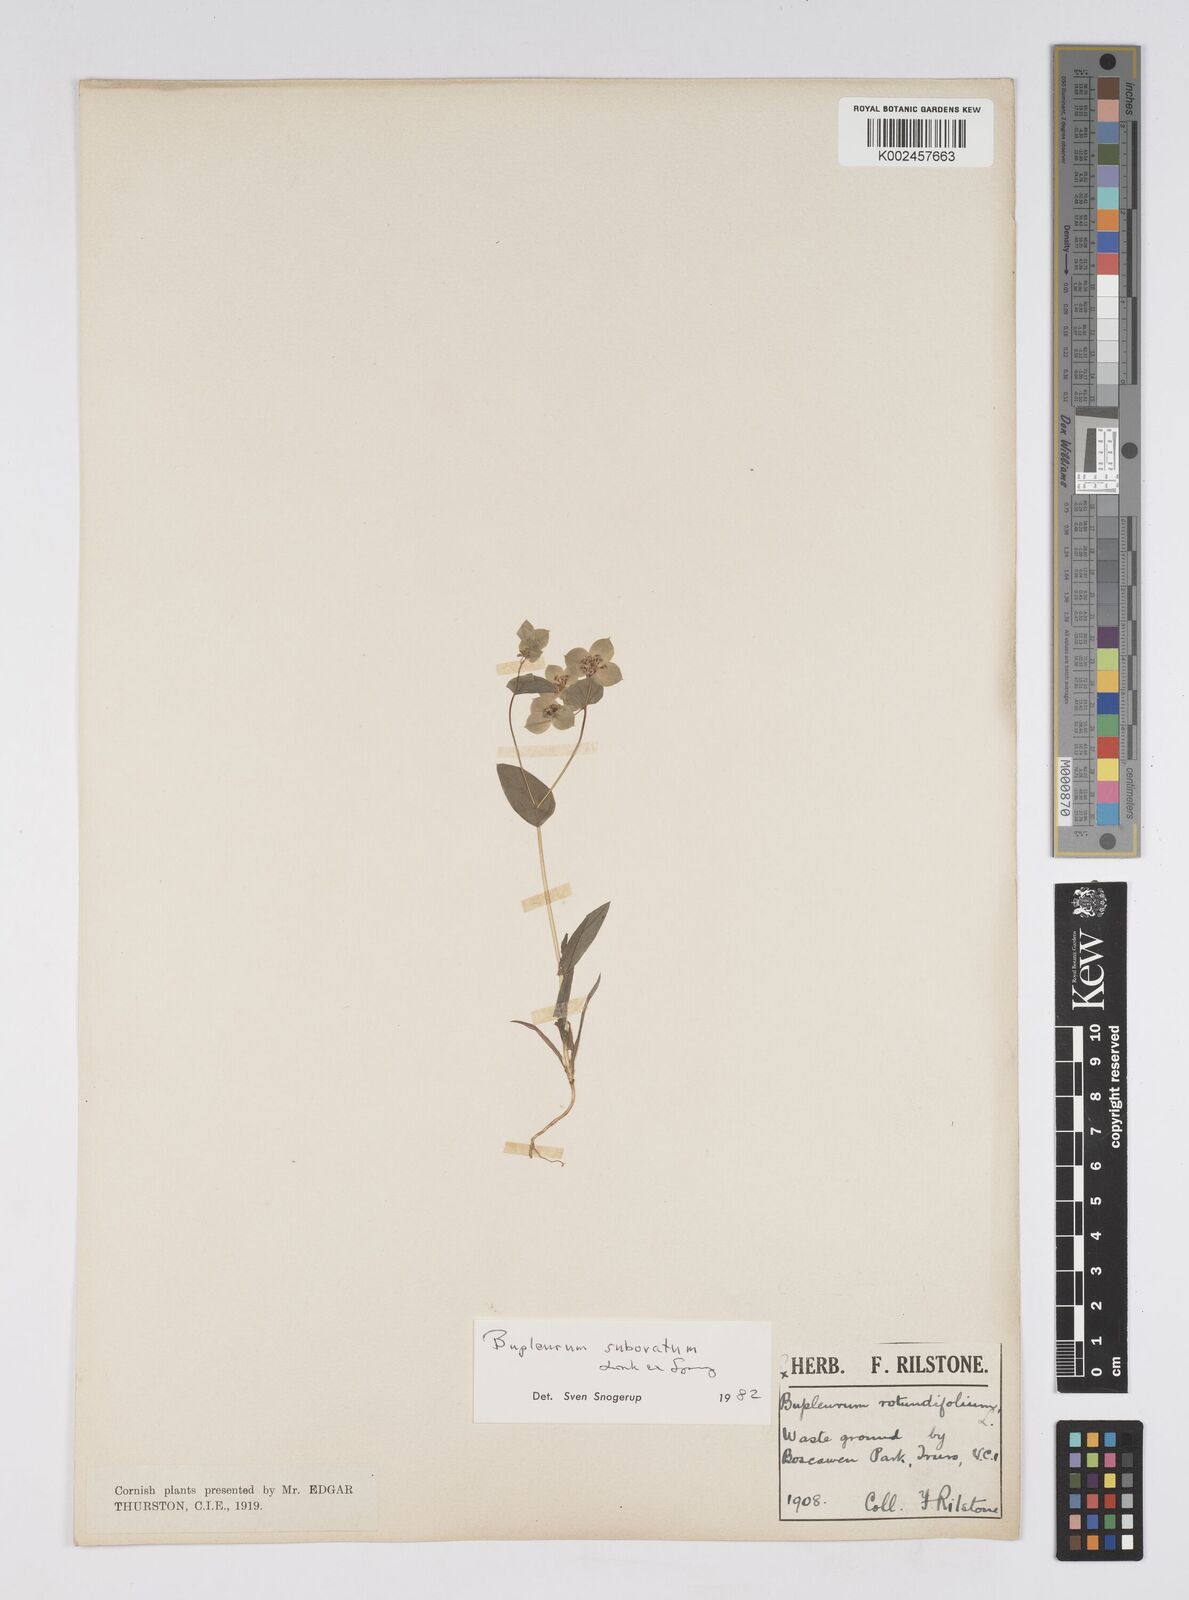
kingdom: Plantae
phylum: Tracheophyta
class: Magnoliopsida
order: Apiales
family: Apiaceae
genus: Bupleurum
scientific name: Bupleurum subovatum
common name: False thorow-wax
